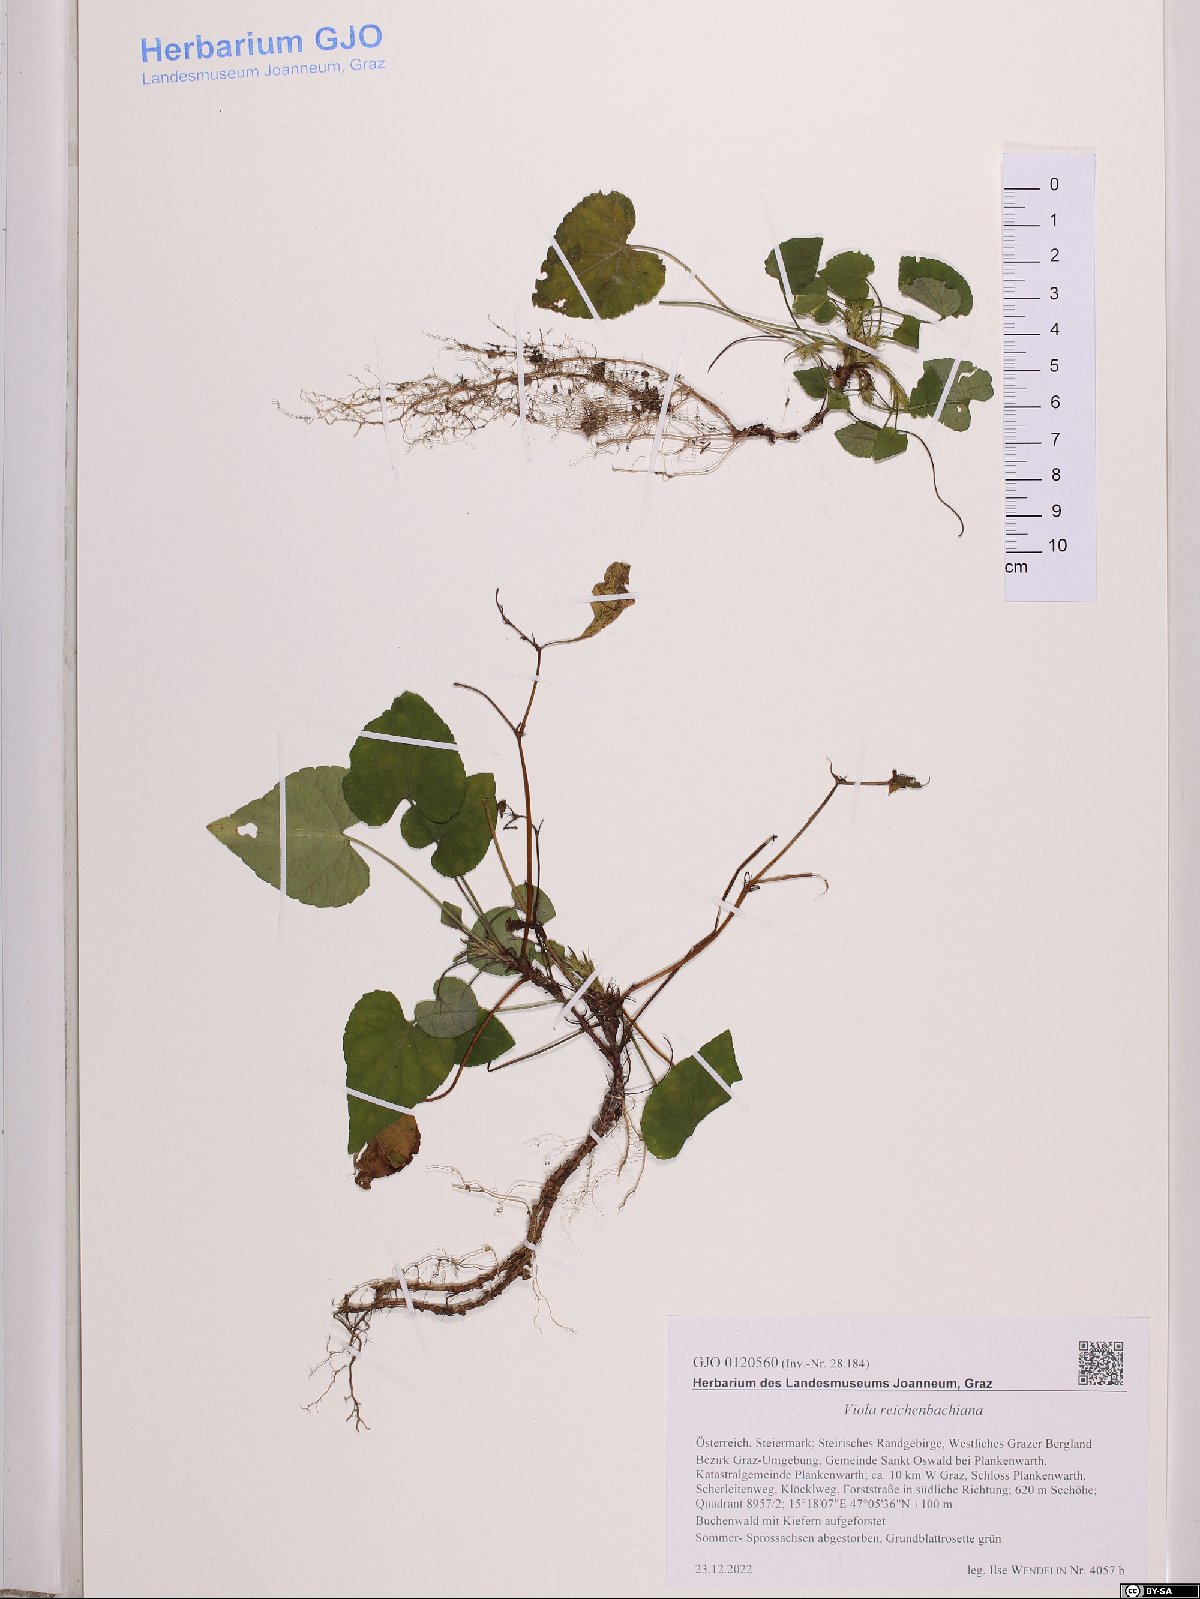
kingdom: Plantae
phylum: Tracheophyta
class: Magnoliopsida
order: Malpighiales
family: Violaceae
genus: Viola
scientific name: Viola reichenbachiana
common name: Early dog-violet
